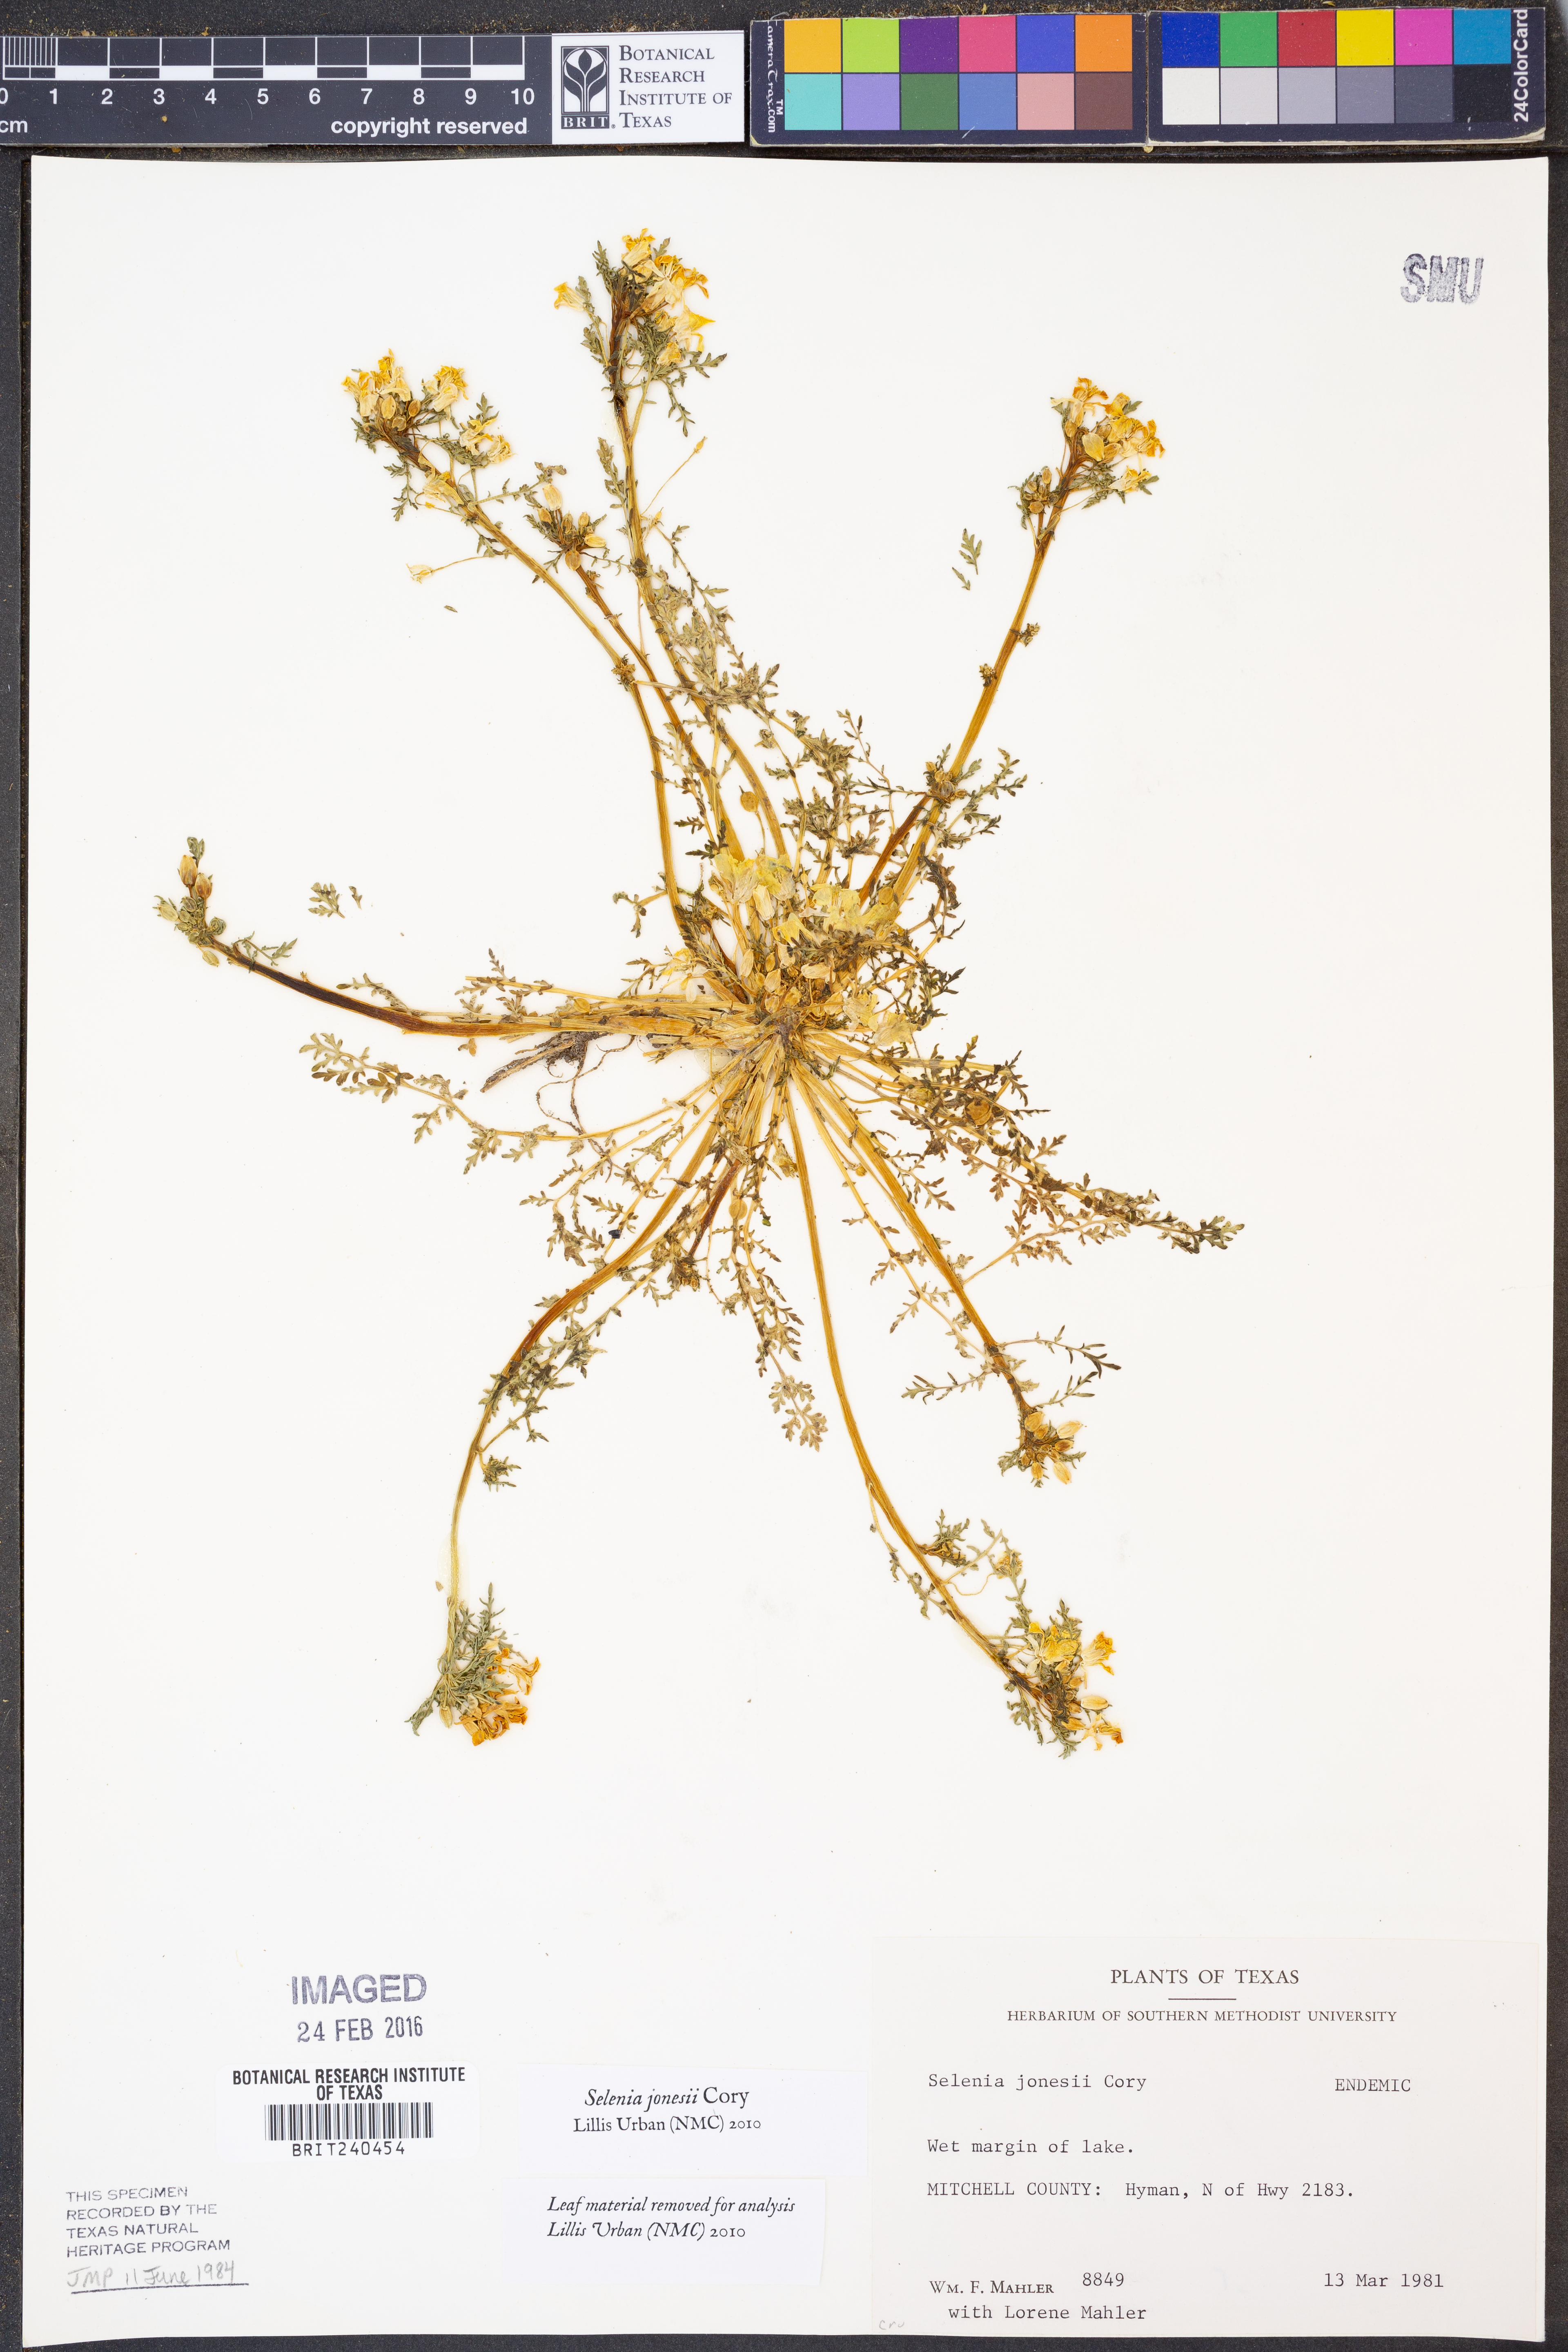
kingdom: Plantae
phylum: Tracheophyta
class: Magnoliopsida
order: Brassicales
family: Brassicaceae
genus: Selenia
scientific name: Selenia jonesii
